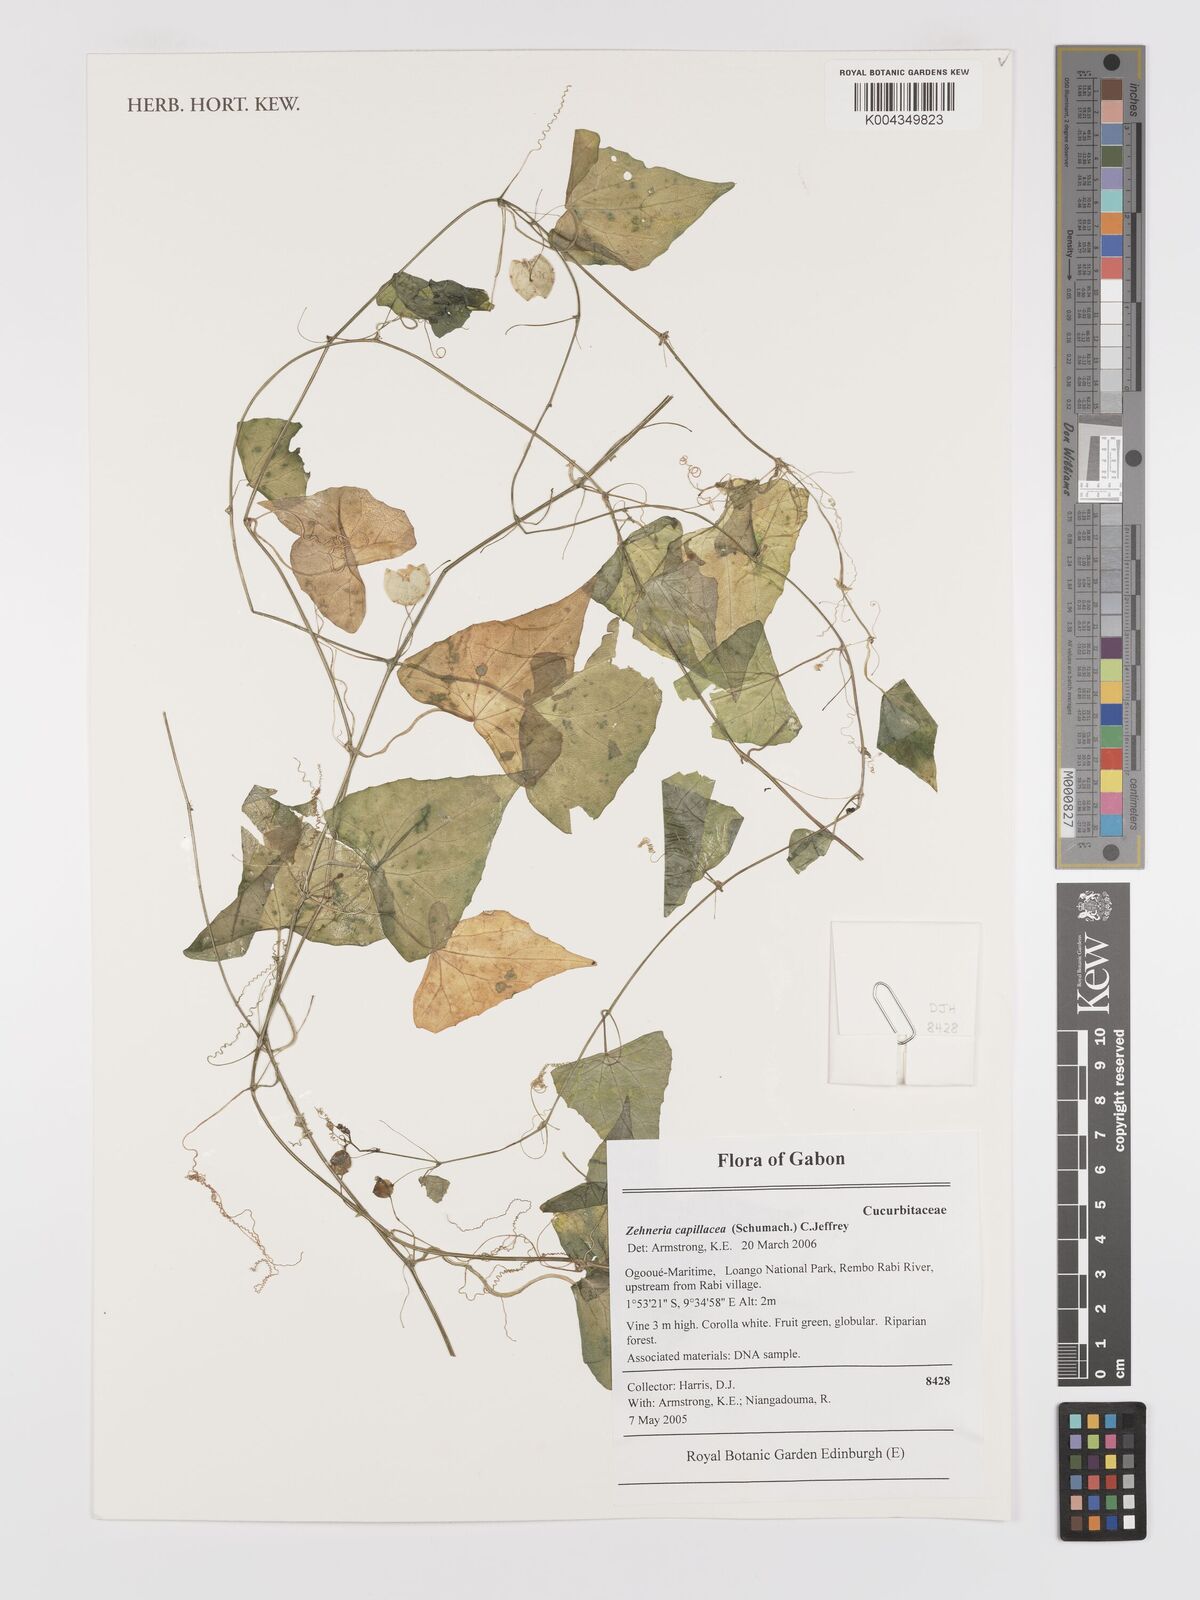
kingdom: Plantae
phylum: Tracheophyta
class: Magnoliopsida
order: Cucurbitales
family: Cucurbitaceae
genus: Zehneria
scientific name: Zehneria capillacea
